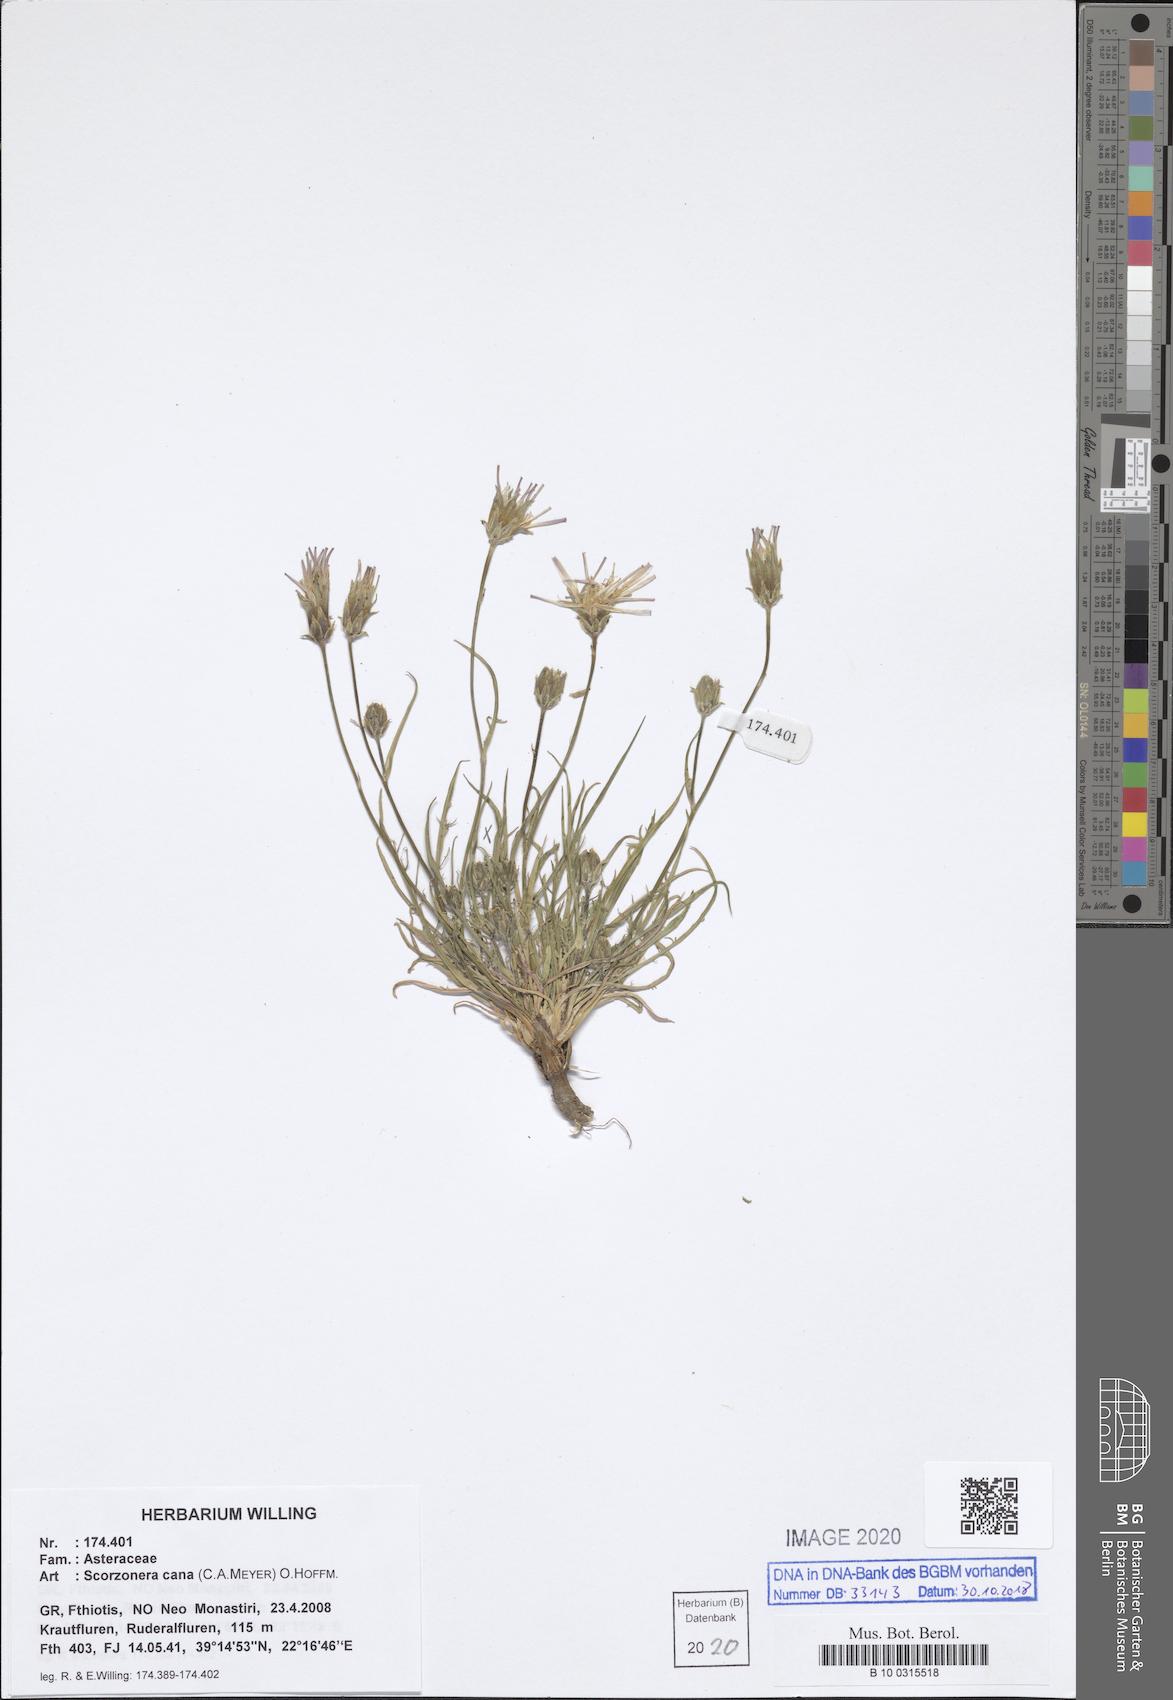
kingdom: Plantae
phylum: Tracheophyta
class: Magnoliopsida
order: Asterales
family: Asteraceae
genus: Scorzonera
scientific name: Scorzonera cana
